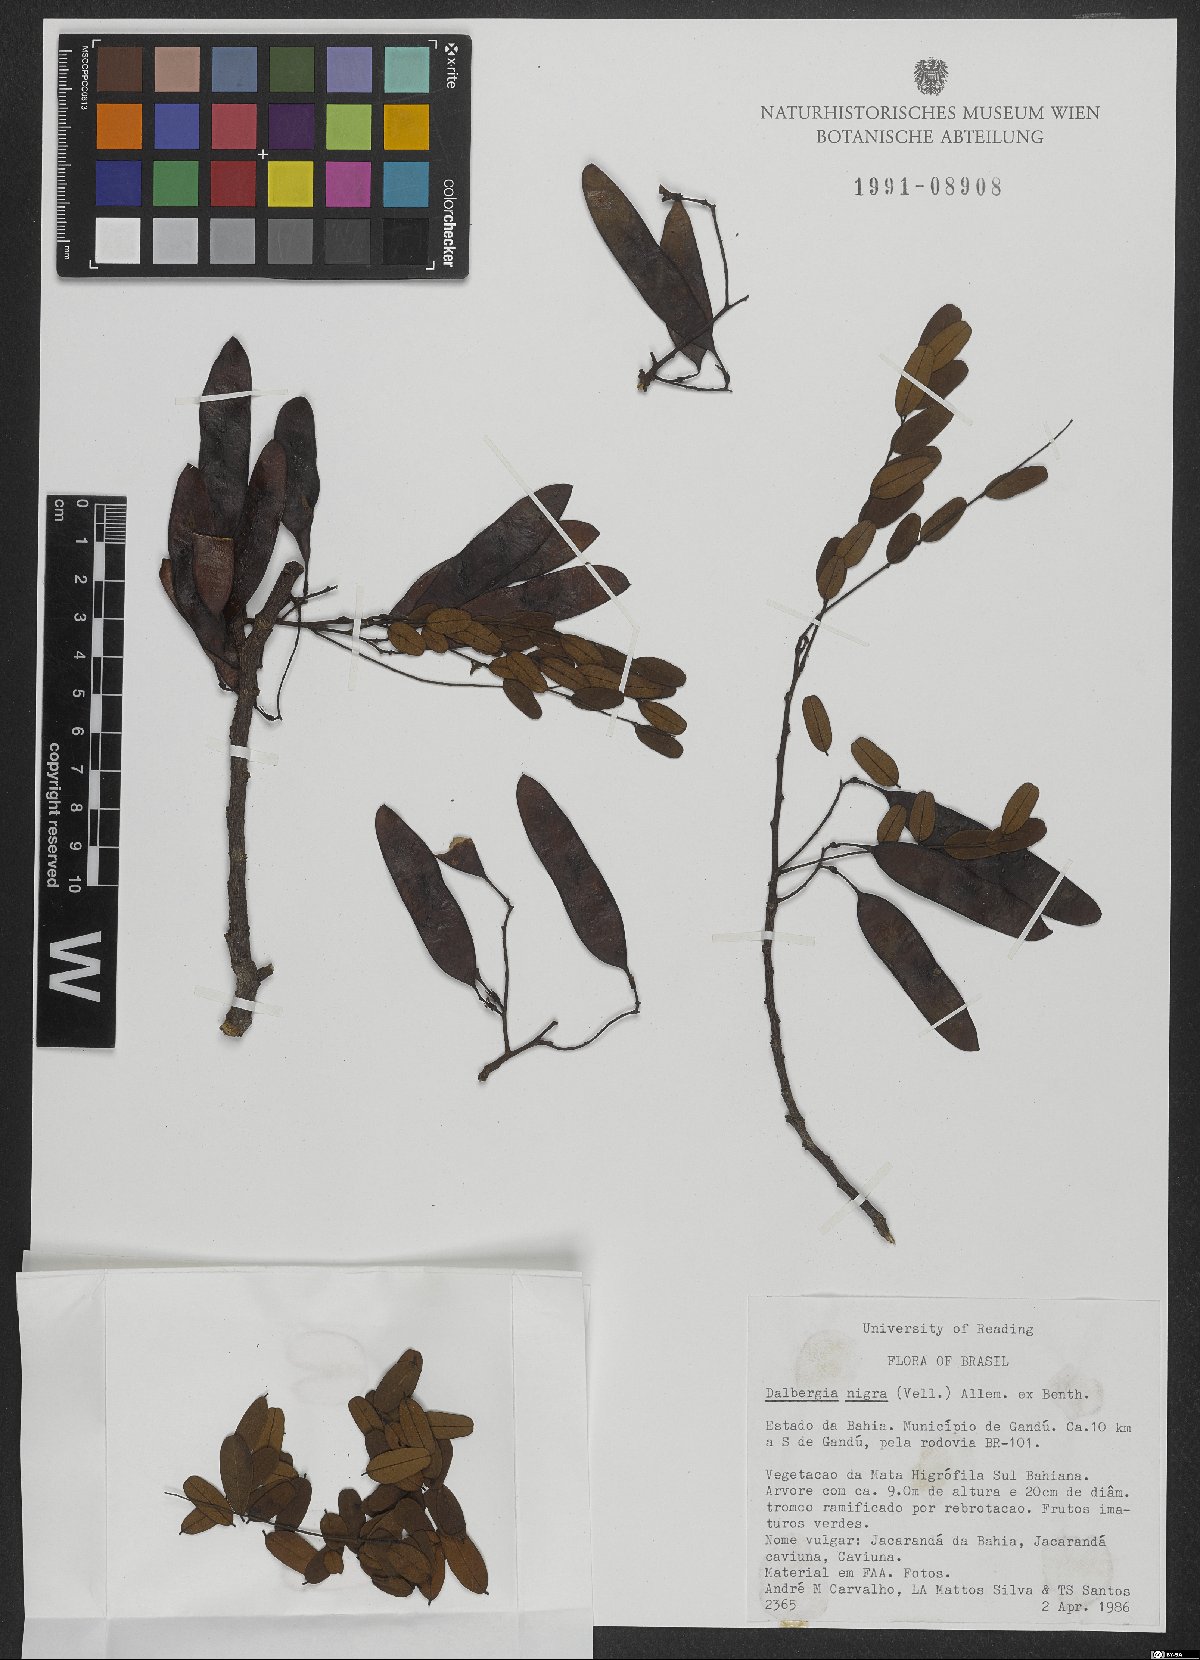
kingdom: Plantae
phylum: Tracheophyta
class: Magnoliopsida
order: Fabales
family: Fabaceae
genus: Dalbergia
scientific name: Dalbergia nigra
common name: Bahia rosewood
